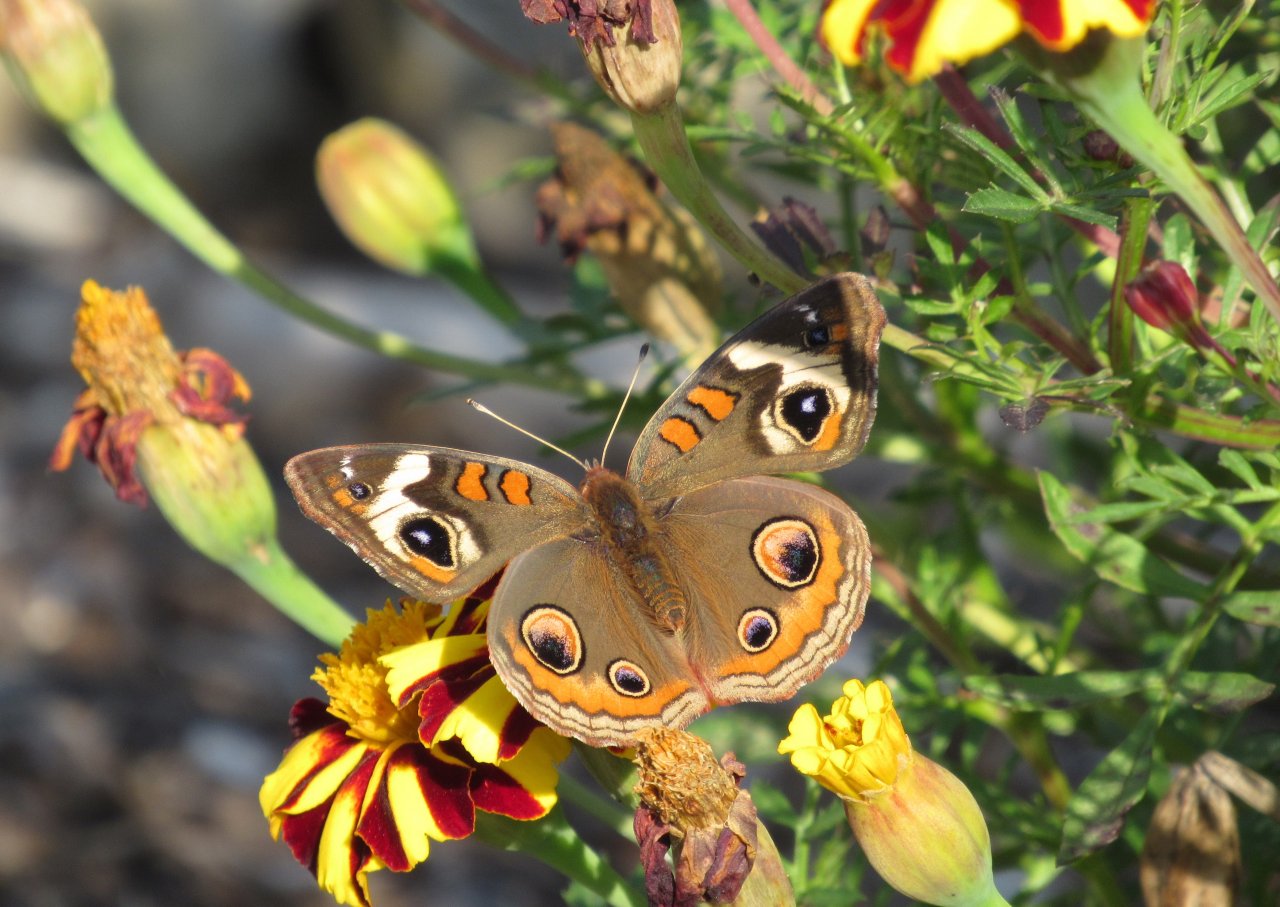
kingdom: Animalia
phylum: Arthropoda
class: Insecta
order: Lepidoptera
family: Nymphalidae
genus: Junonia
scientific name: Junonia coenia
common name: Common Buckeye
